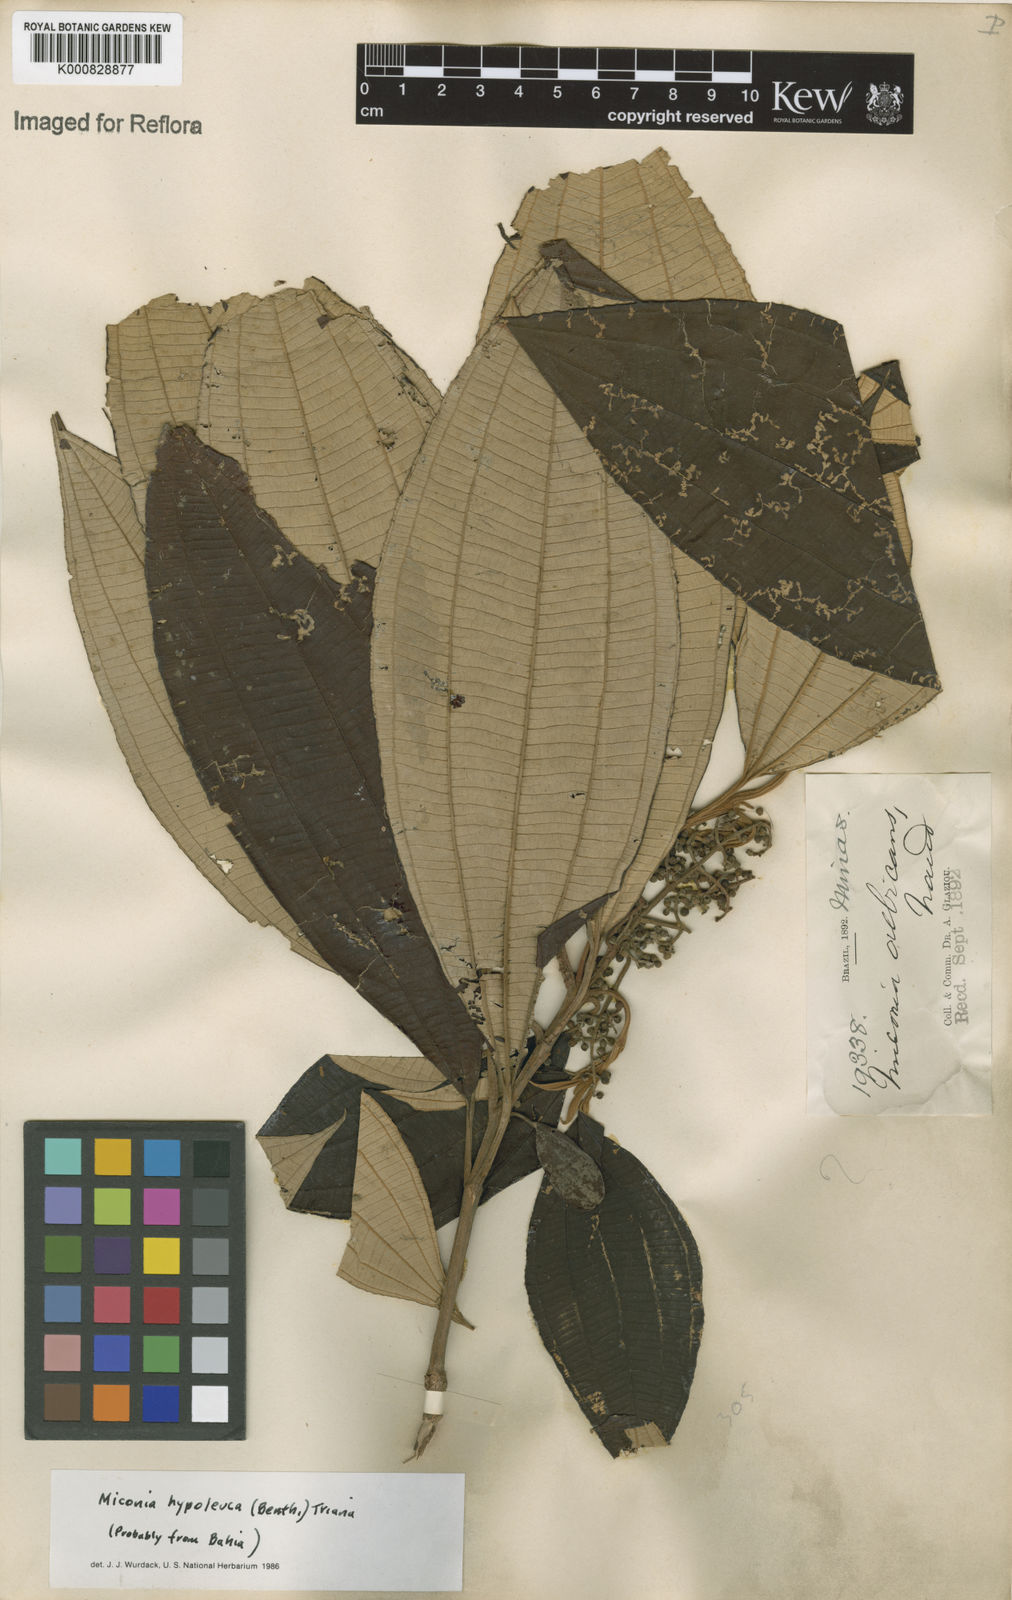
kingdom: Plantae
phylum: Tracheophyta
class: Magnoliopsida
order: Myrtales
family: Melastomataceae
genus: Miconia
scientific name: Miconia hypoleuca
